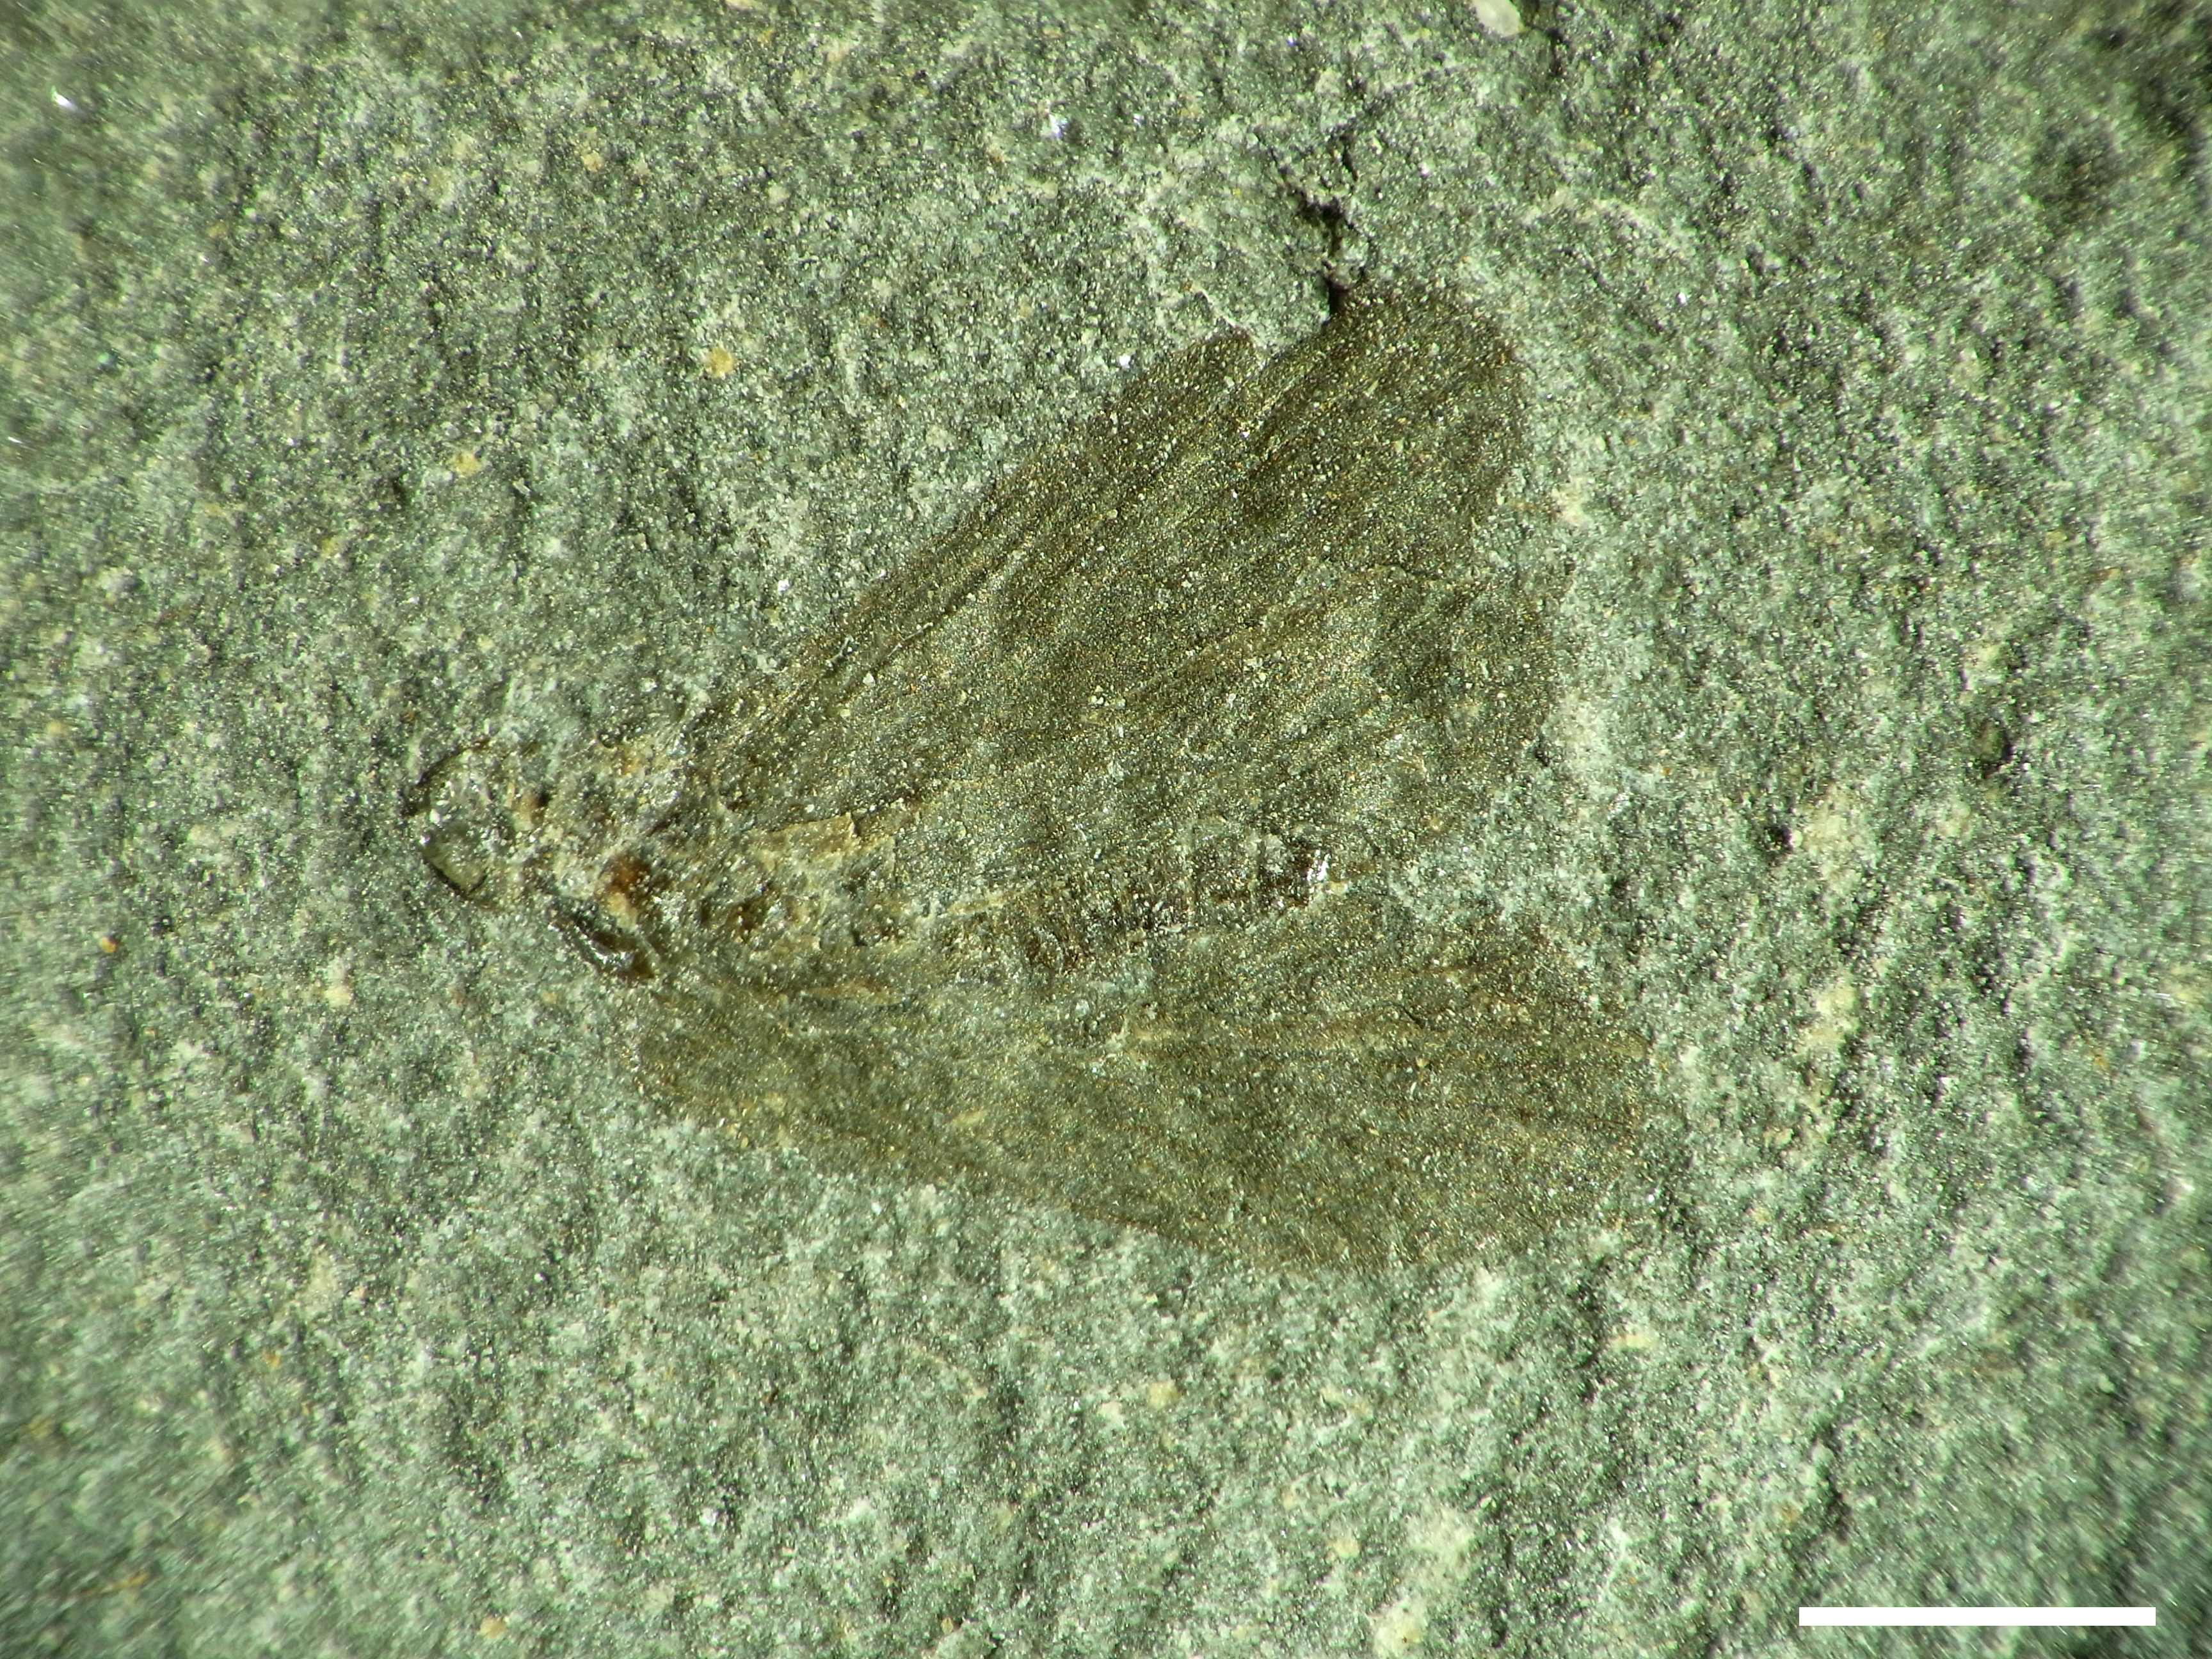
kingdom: Animalia
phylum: Arthropoda
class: Insecta
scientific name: Insecta
